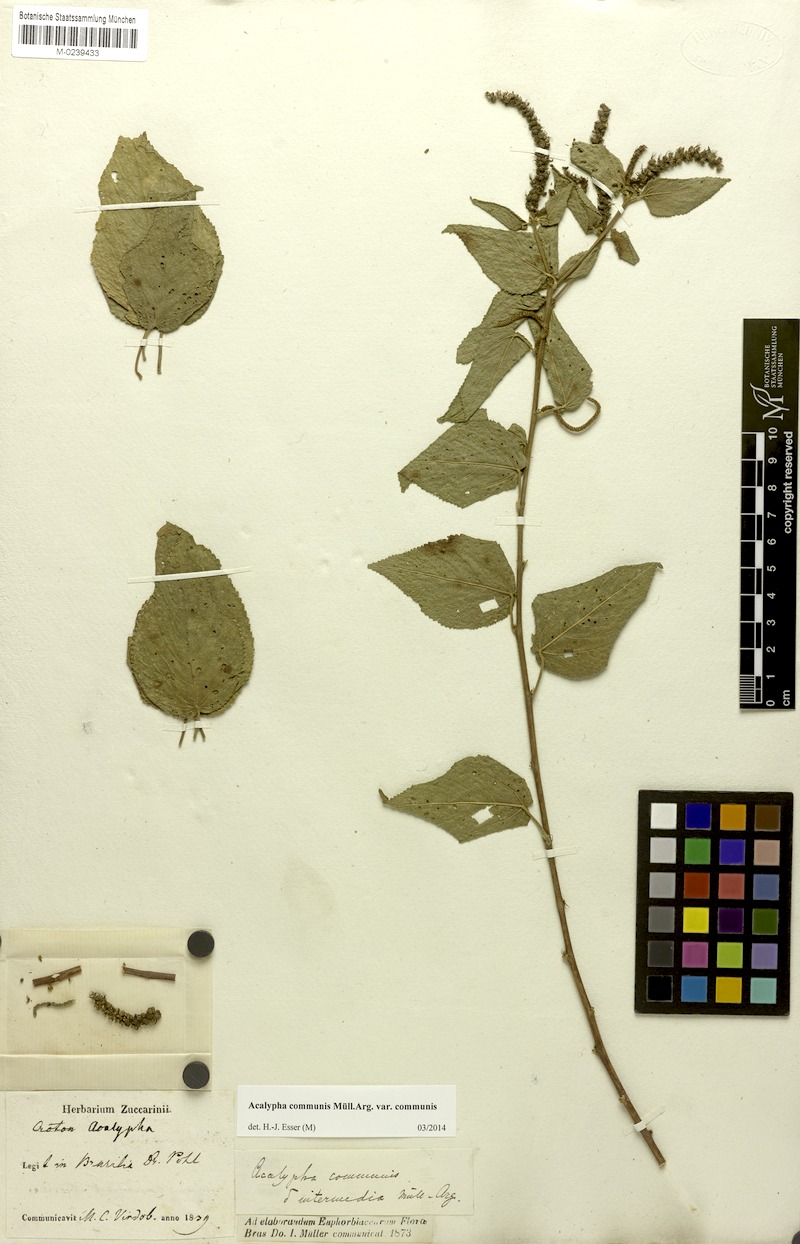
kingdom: Plantae
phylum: Tracheophyta
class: Magnoliopsida
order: Malpighiales
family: Euphorbiaceae
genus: Acalypha
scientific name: Acalypha communis
